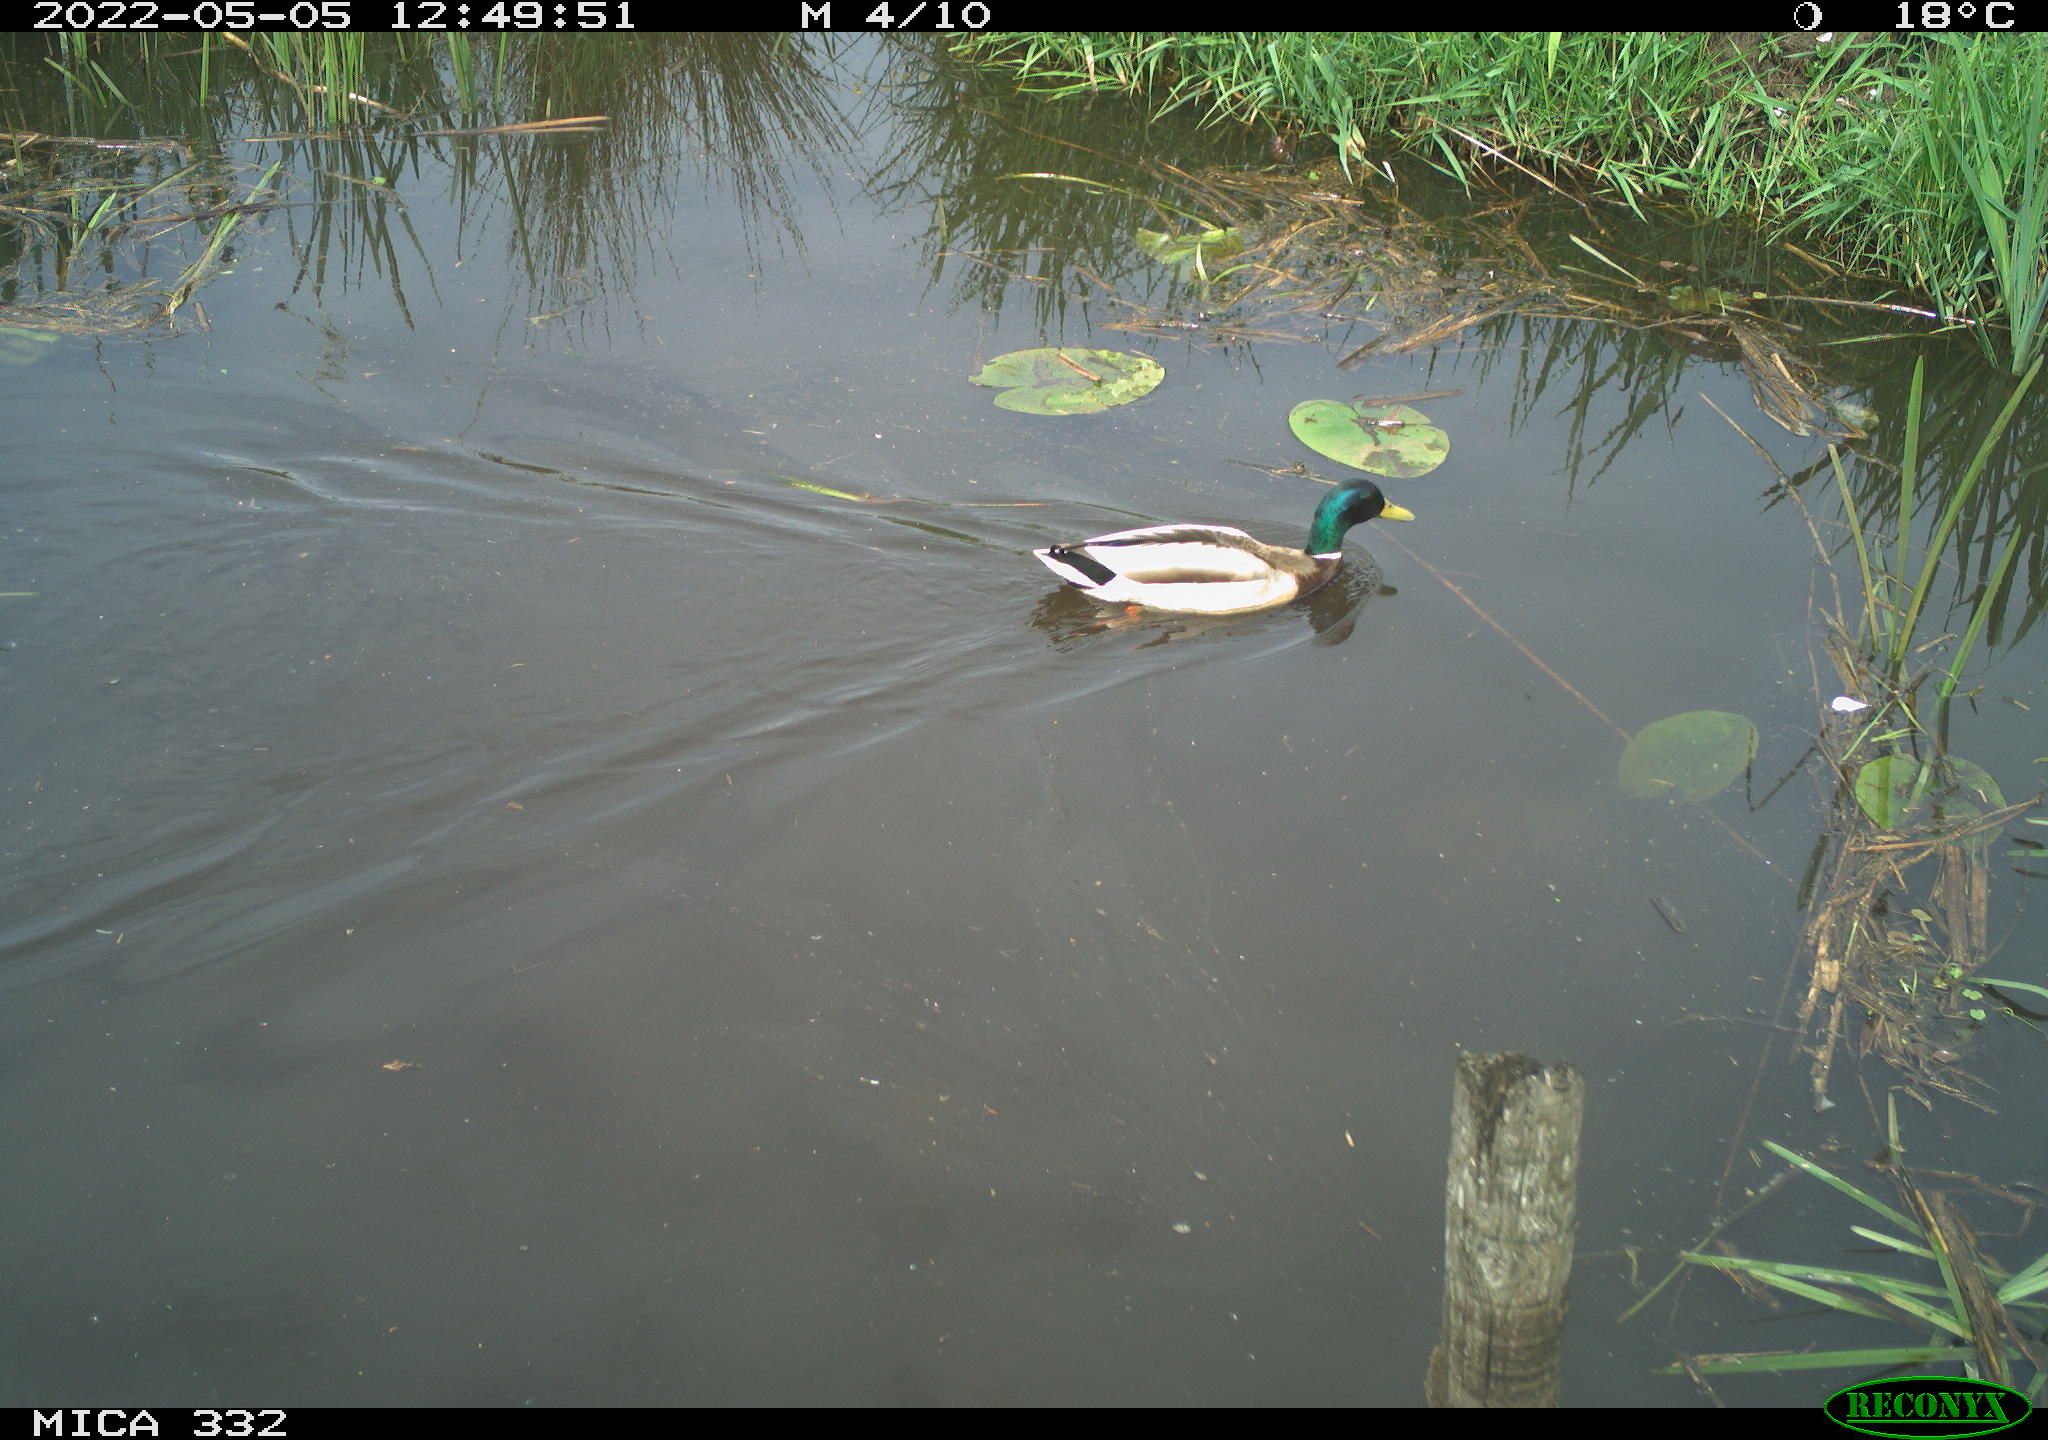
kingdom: Animalia
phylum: Chordata
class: Aves
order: Anseriformes
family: Anatidae
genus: Anas
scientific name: Anas platyrhynchos
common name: Mallard
